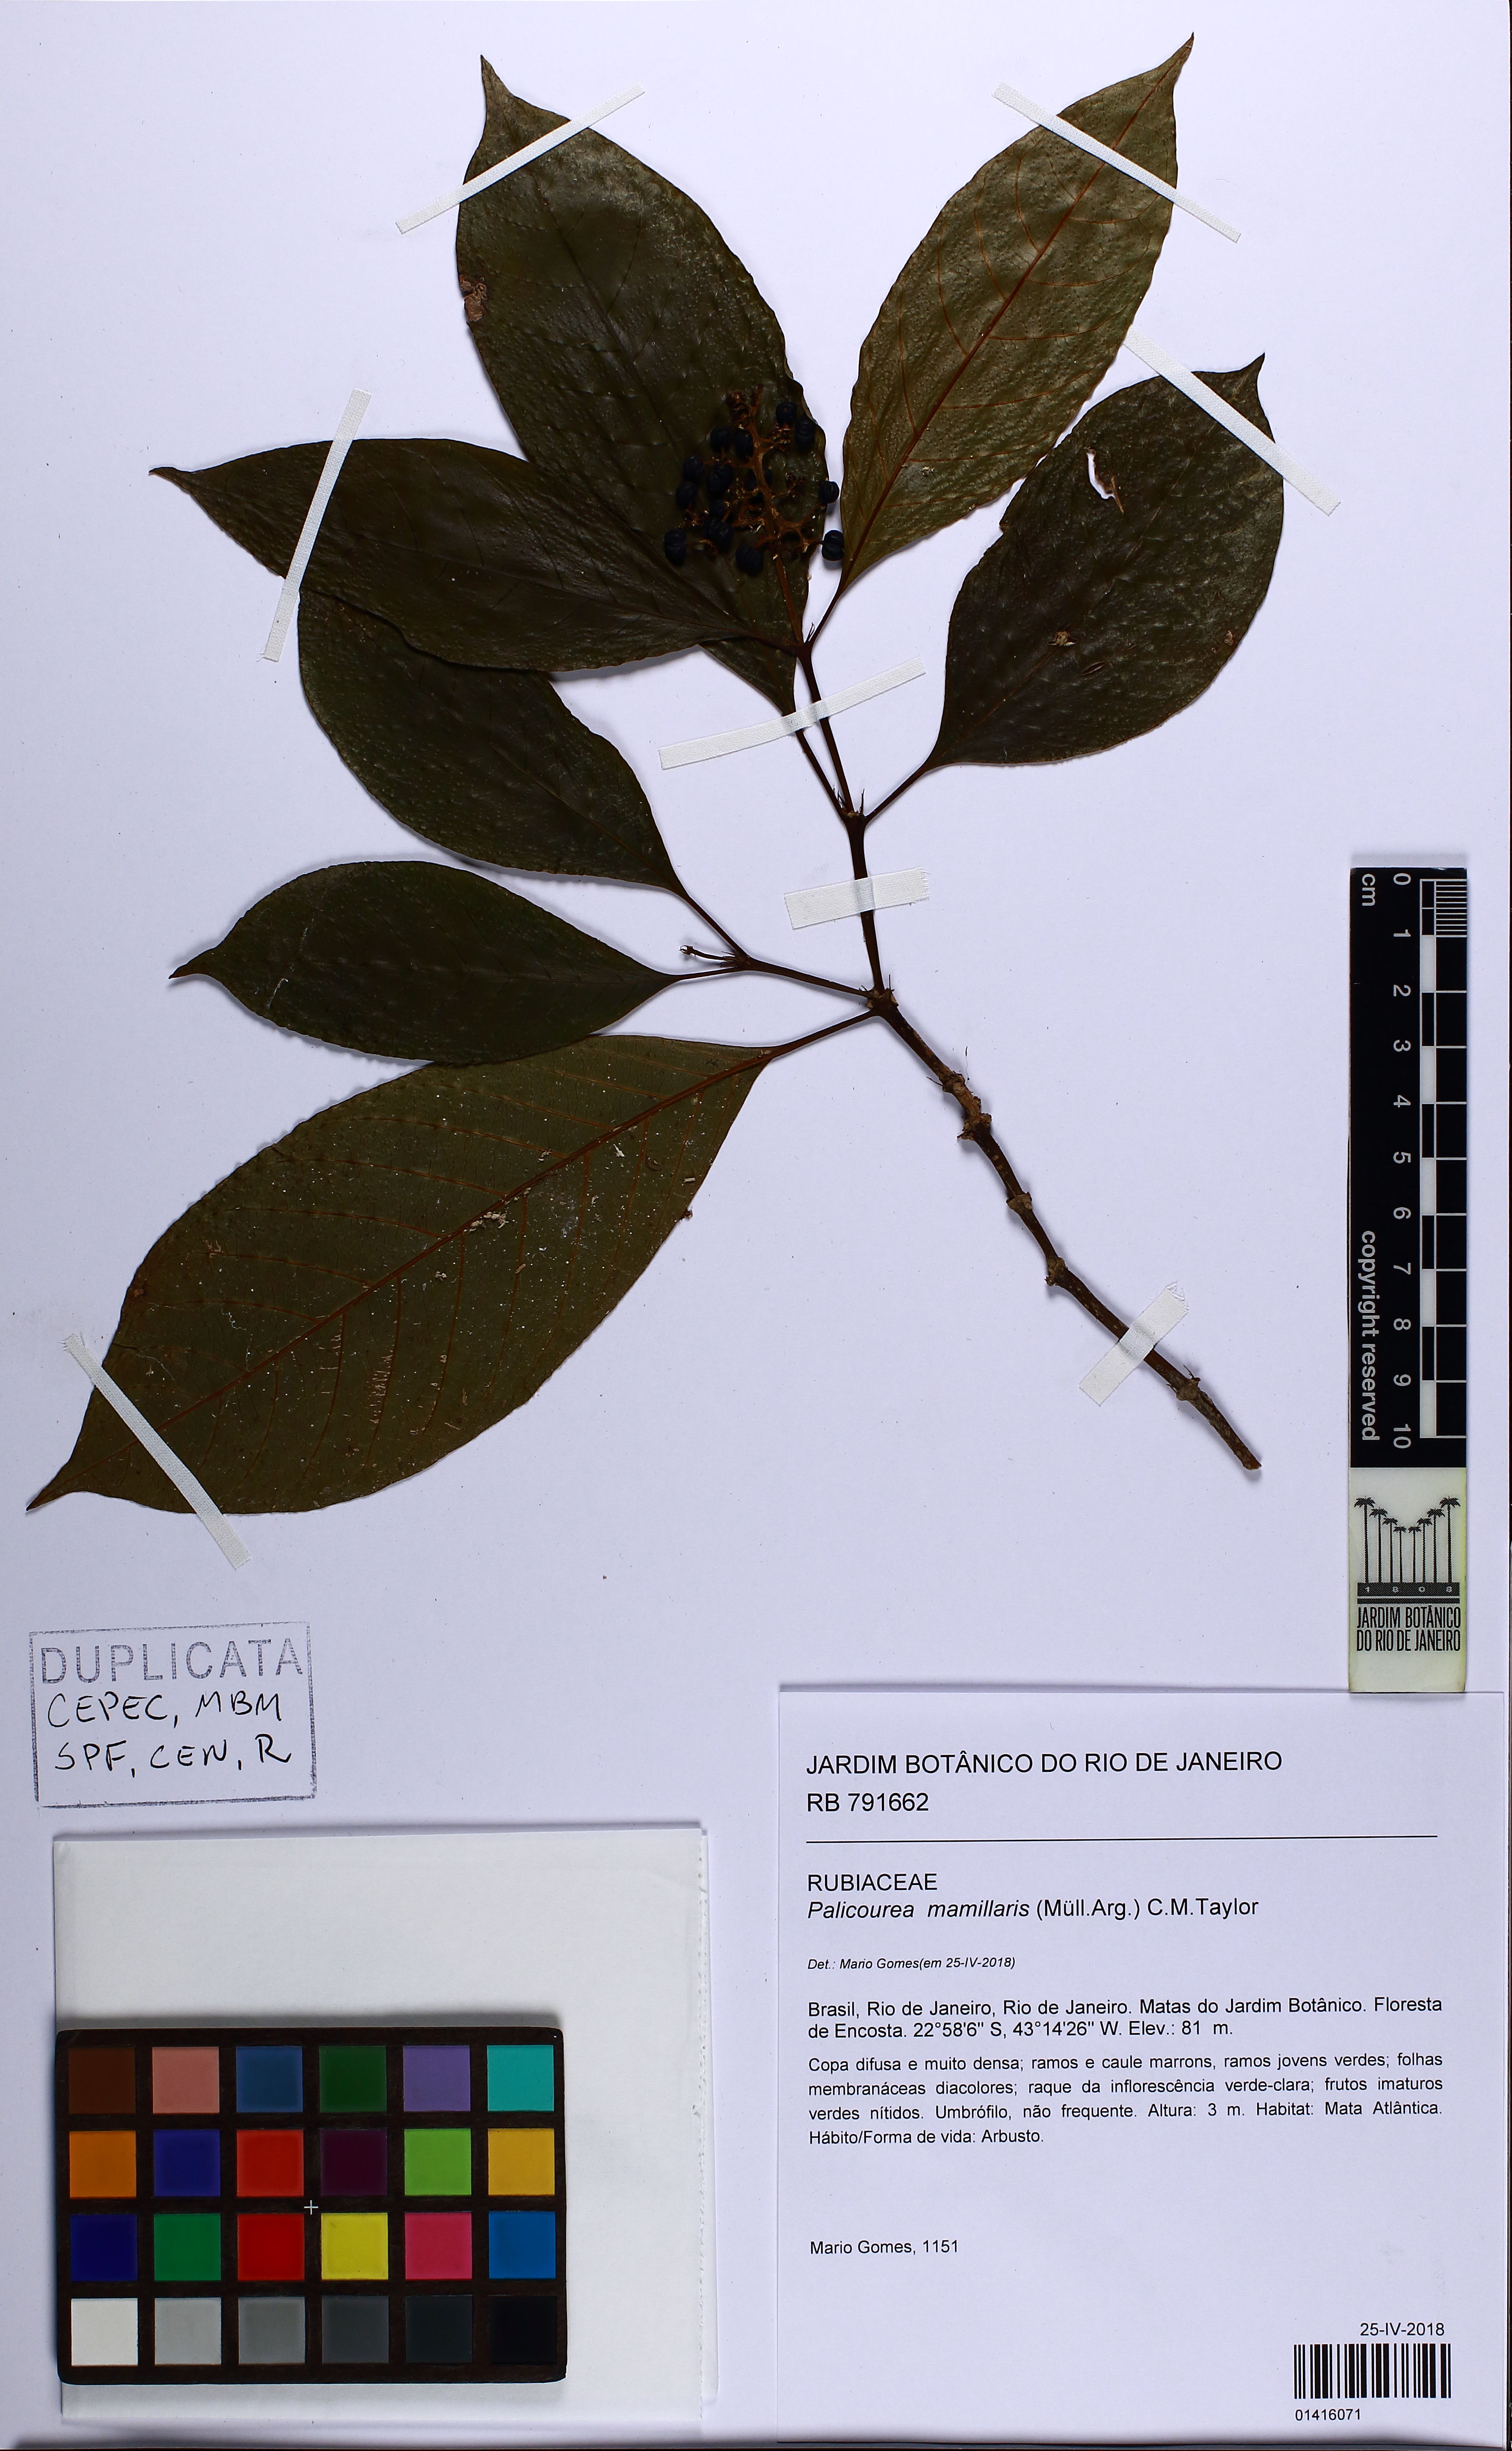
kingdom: Plantae
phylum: Tracheophyta
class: Magnoliopsida
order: Gentianales
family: Rubiaceae
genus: Palicourea
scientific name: Palicourea mamillaris
